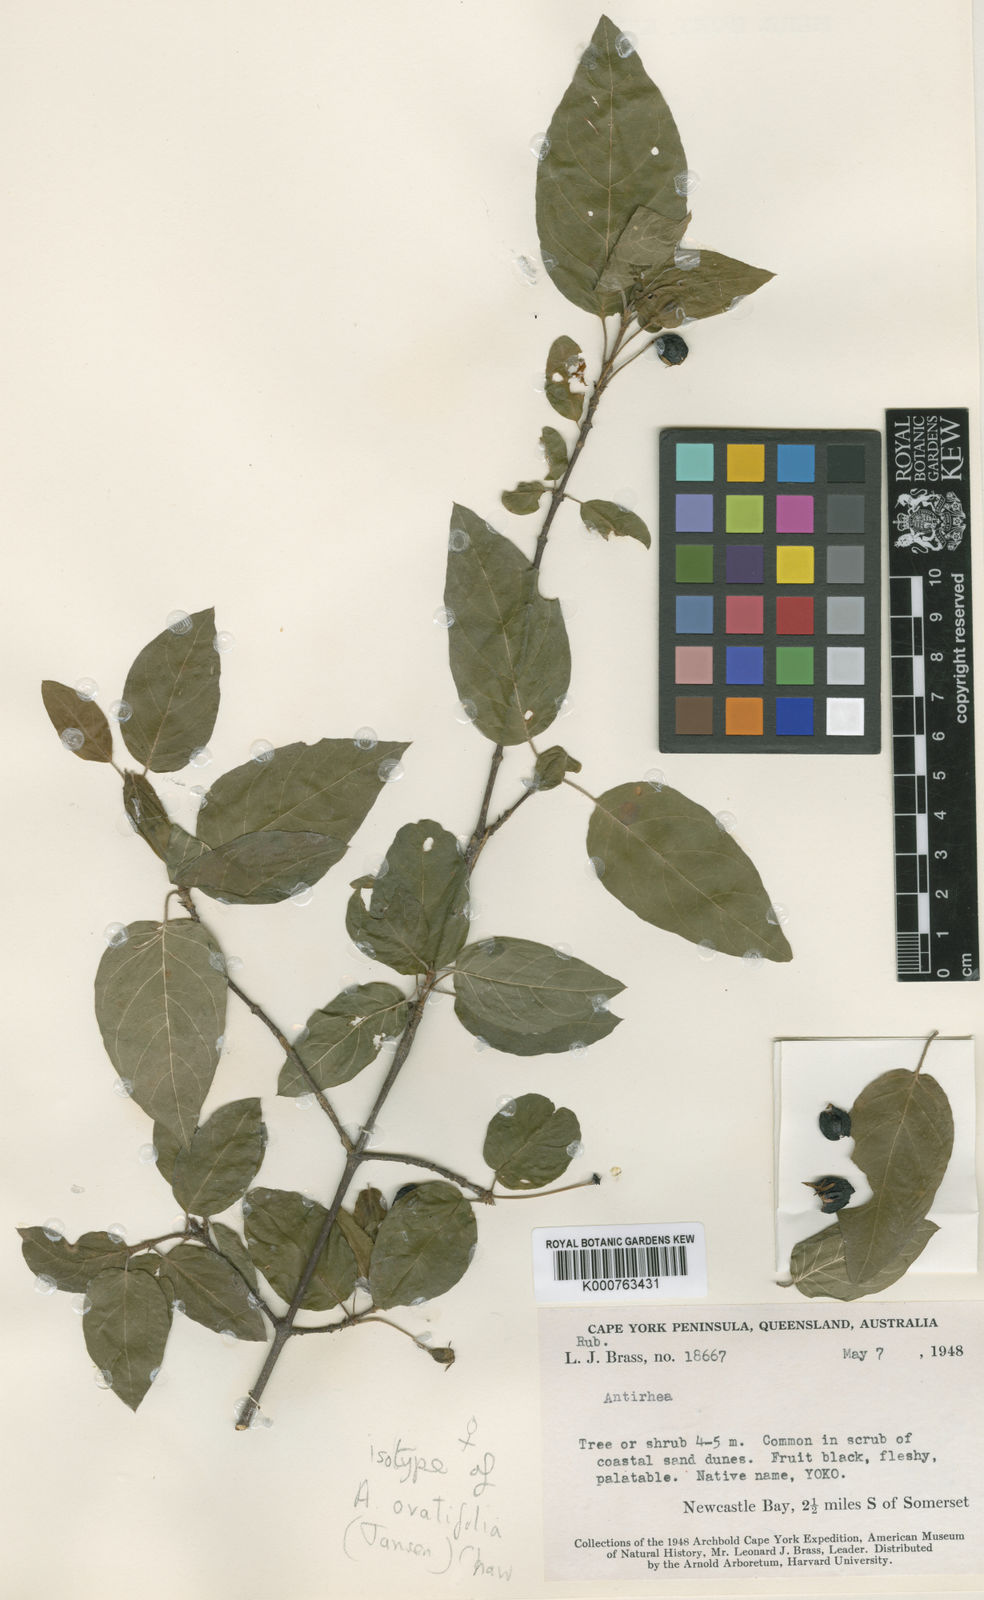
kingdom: Plantae
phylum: Tracheophyta
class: Magnoliopsida
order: Gentianales
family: Rubiaceae
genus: Guettardella
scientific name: Guettardella ovatifolia
